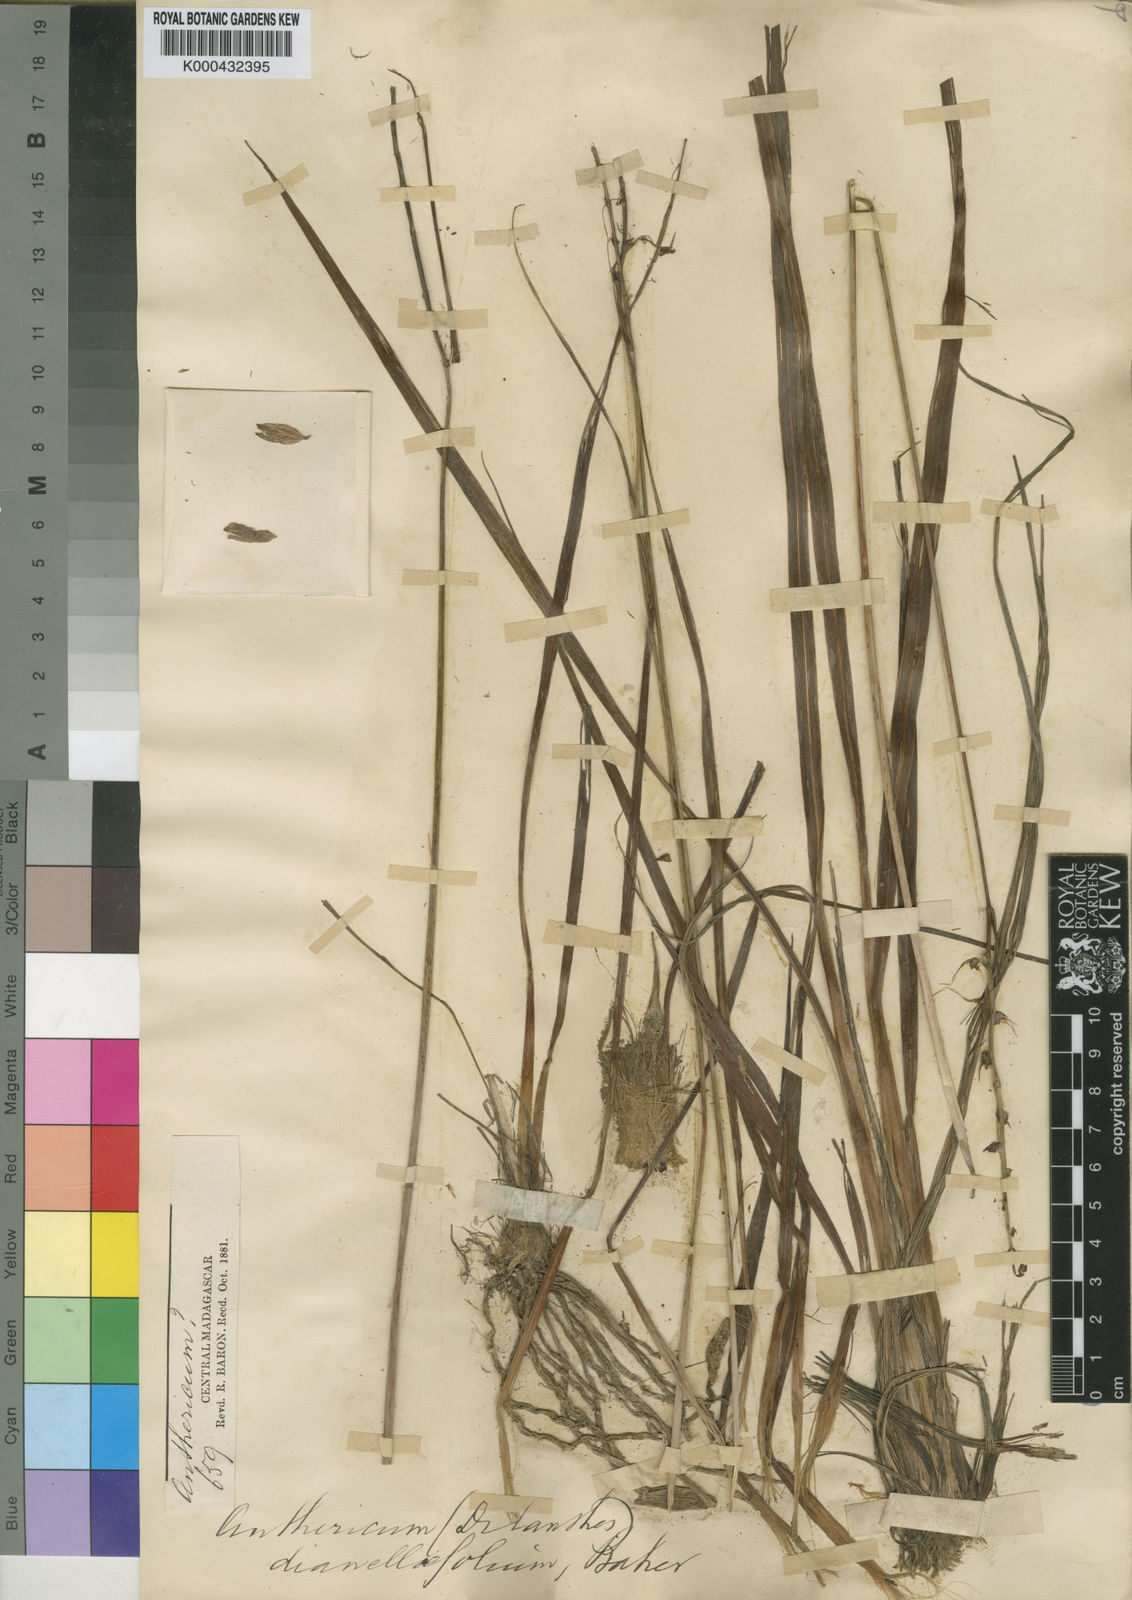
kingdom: Plantae
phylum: Tracheophyta
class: Liliopsida
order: Asparagales
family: Asparagaceae
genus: Chlorophytum
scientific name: Chlorophytum dianellifolium
